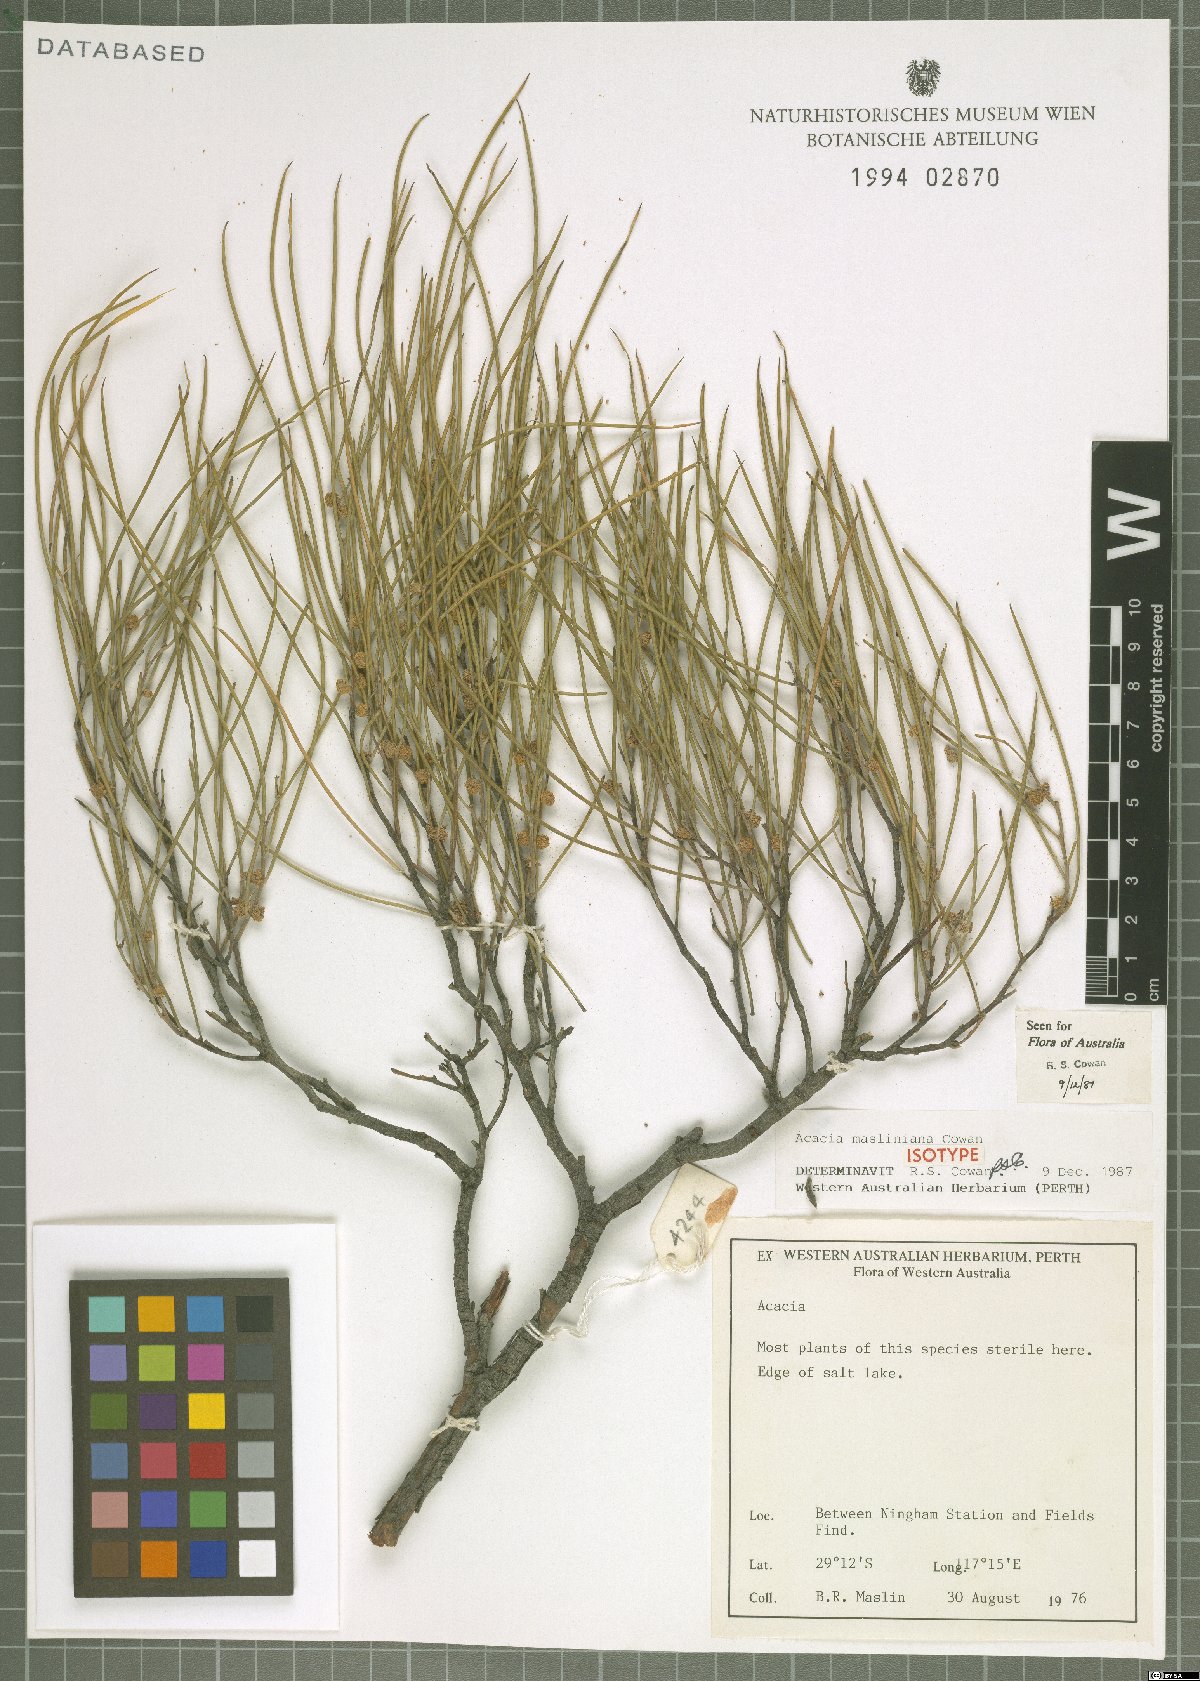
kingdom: Plantae
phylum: Tracheophyta
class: Magnoliopsida
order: Fabales
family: Fabaceae
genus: Acacia
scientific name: Acacia masliniana
